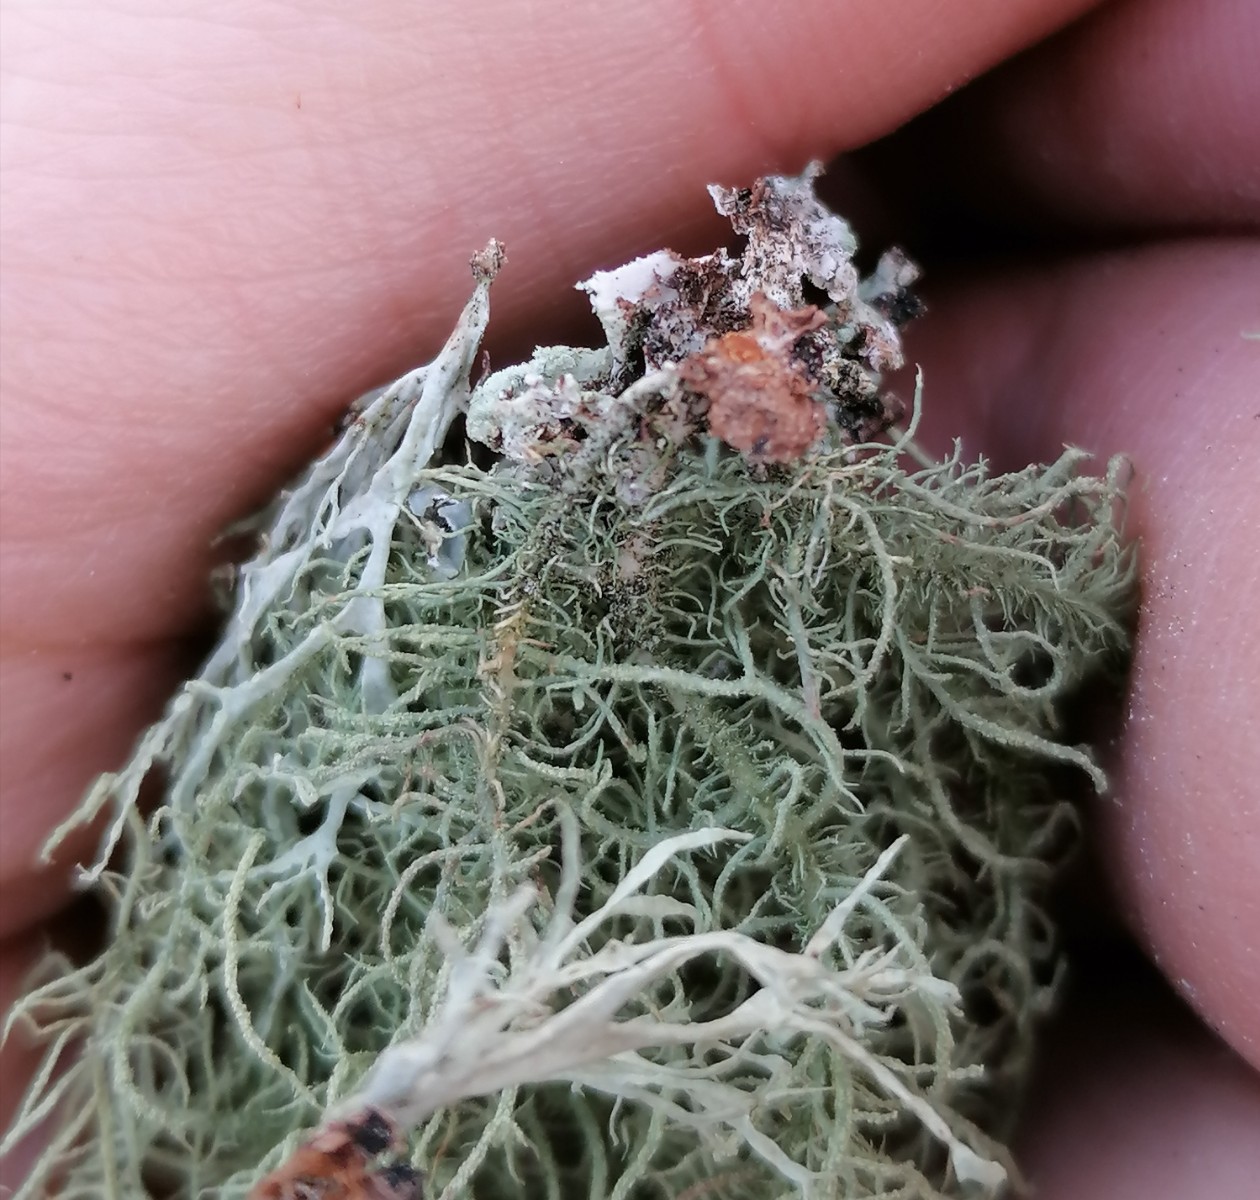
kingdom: Fungi
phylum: Ascomycota
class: Lecanoromycetes
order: Lecanorales
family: Parmeliaceae
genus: Usnea
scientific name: Usnea hirta
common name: liden skæglav
